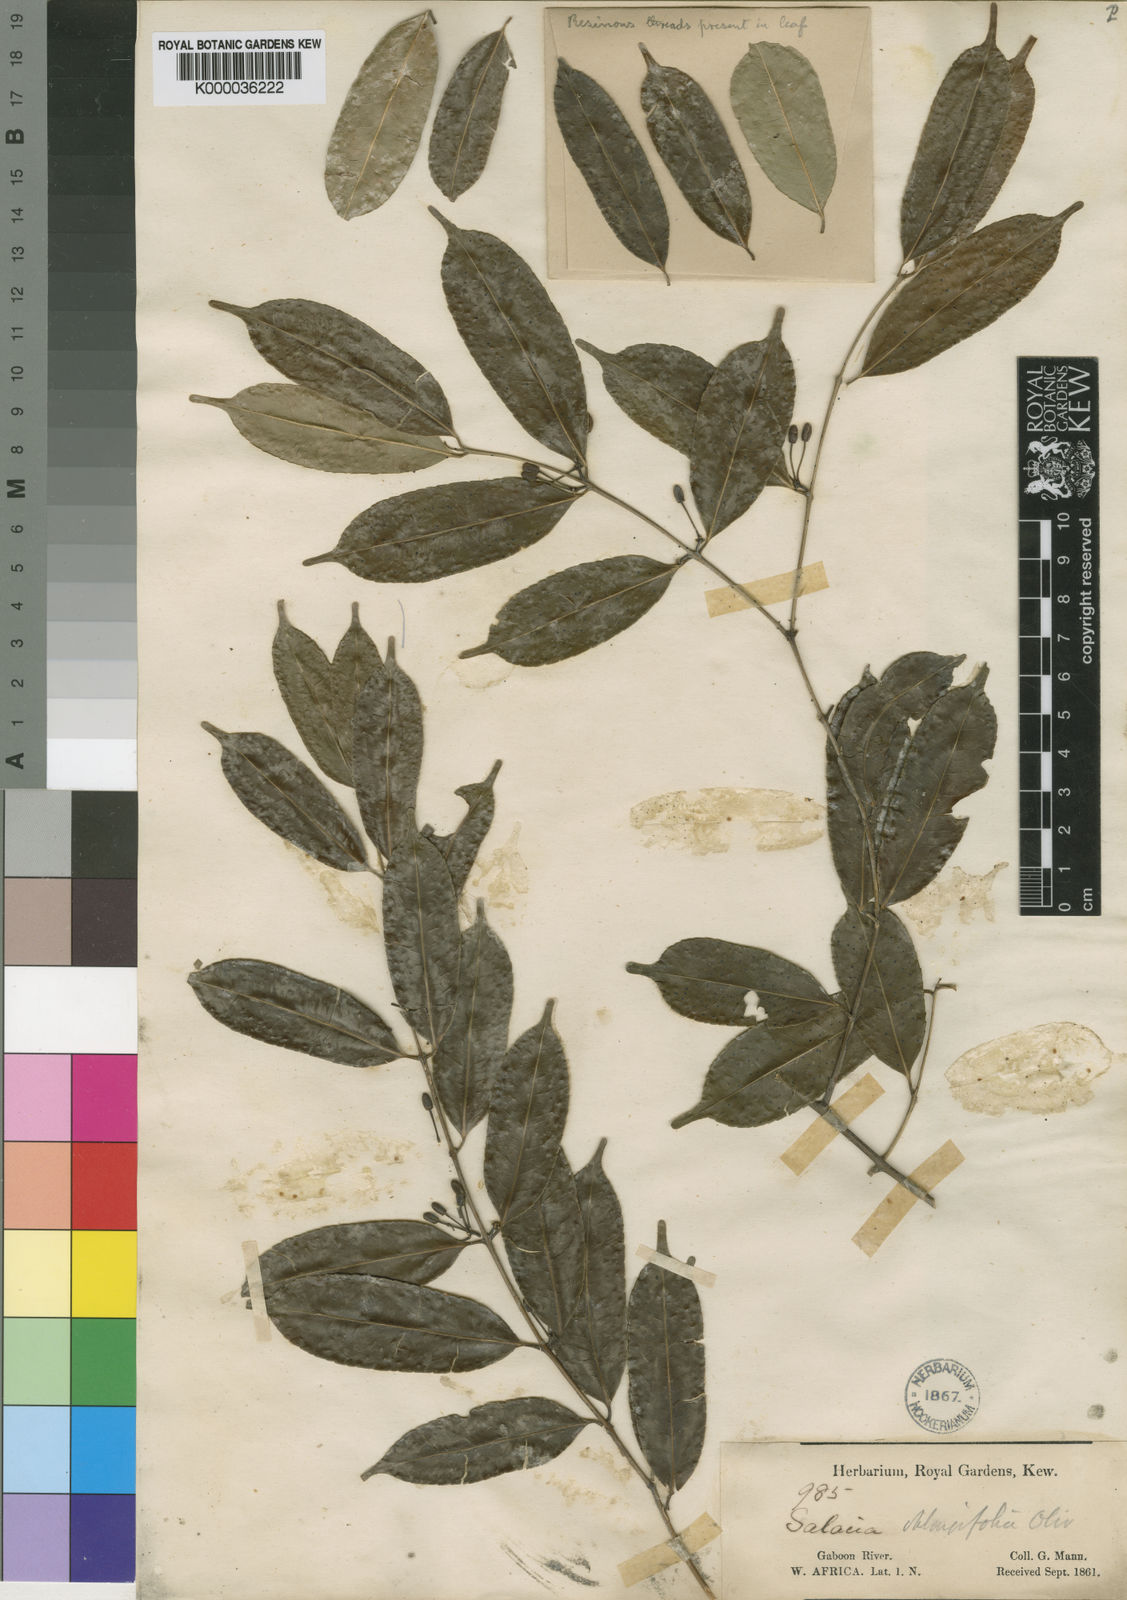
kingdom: Plantae
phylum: Tracheophyta
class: Magnoliopsida
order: Celastrales
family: Celastraceae
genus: Salacia
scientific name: Salacia oliveriana
